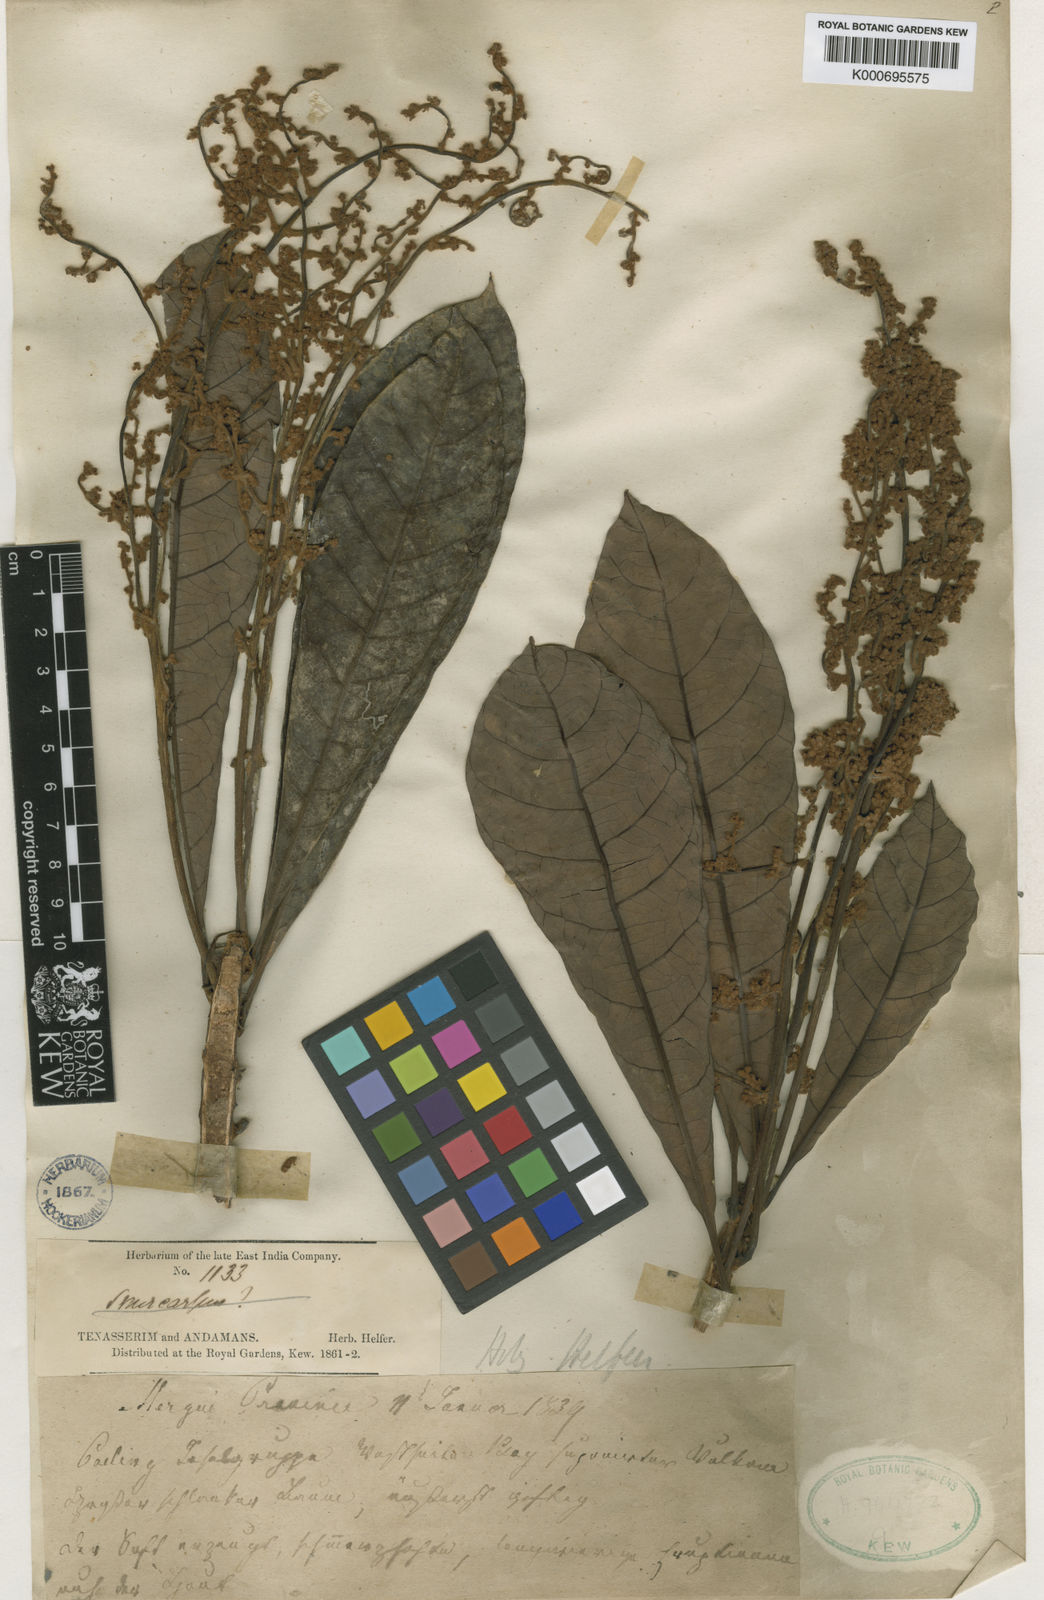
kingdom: Plantae
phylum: Tracheophyta
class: Magnoliopsida
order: Sapindales
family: Anacardiaceae
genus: Holigarna
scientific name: Holigarna helferi
